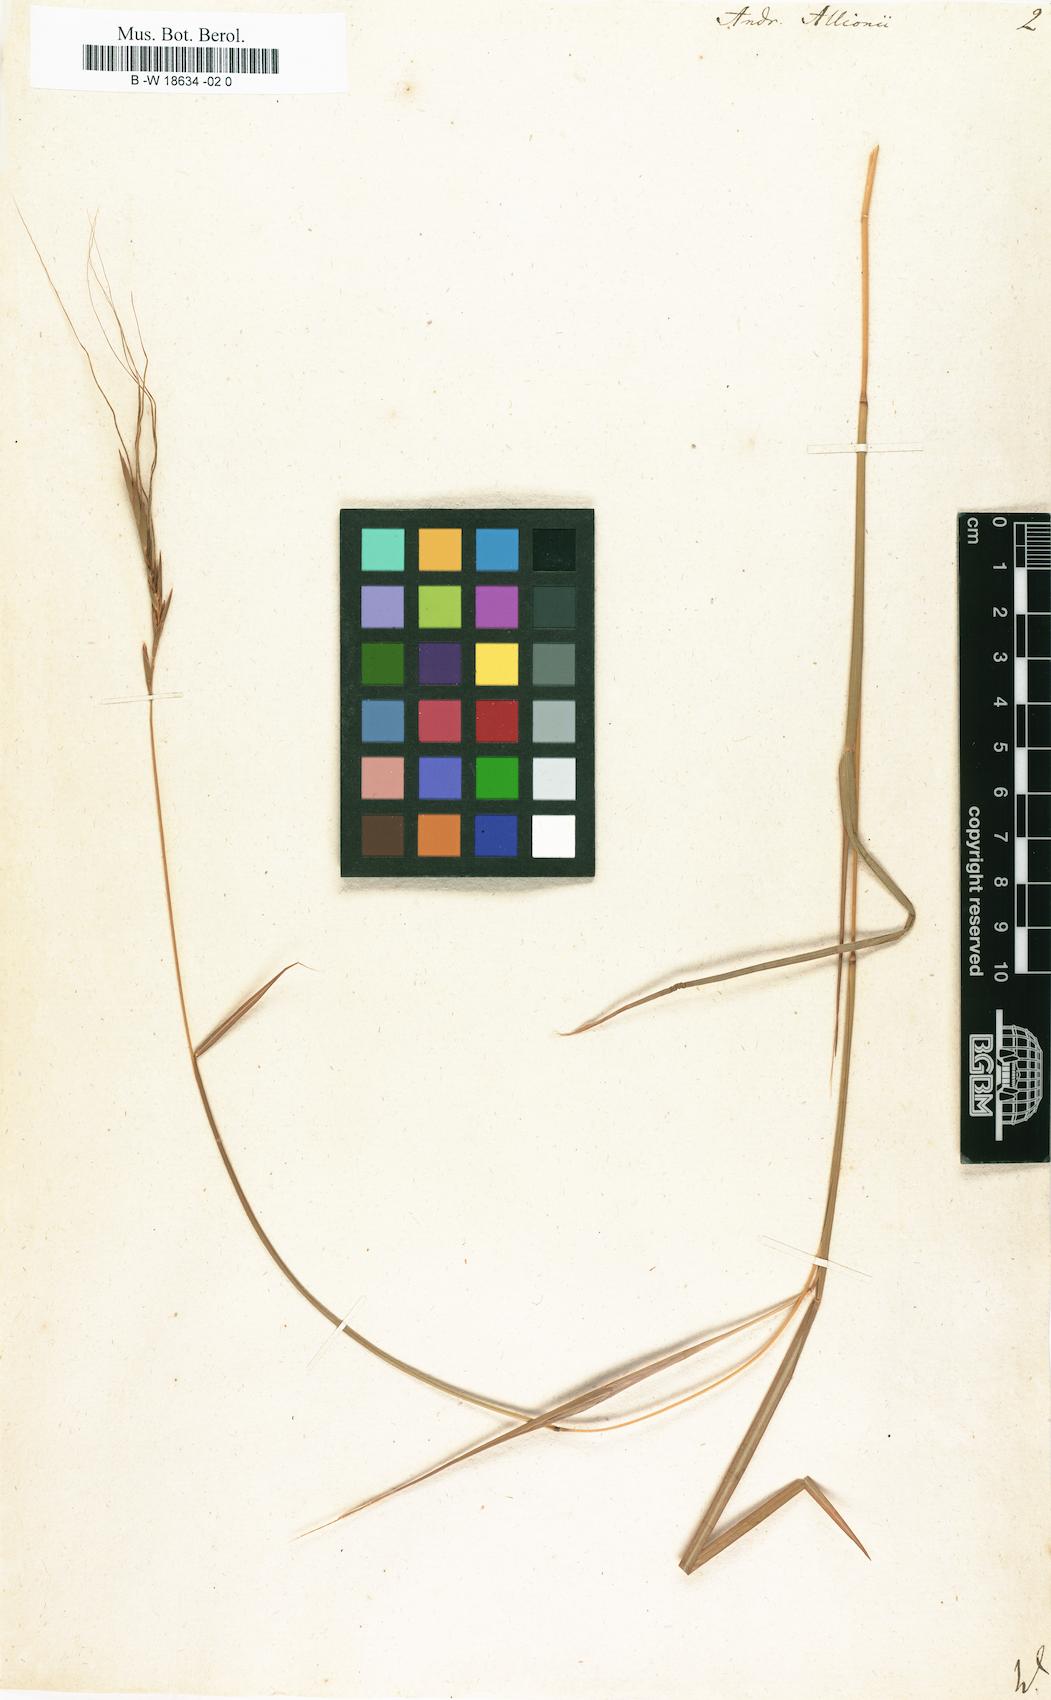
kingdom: Plantae
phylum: Tracheophyta
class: Liliopsida
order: Poales
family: Poaceae
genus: Heteropogon
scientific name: Heteropogon contortus
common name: Tanglehead
